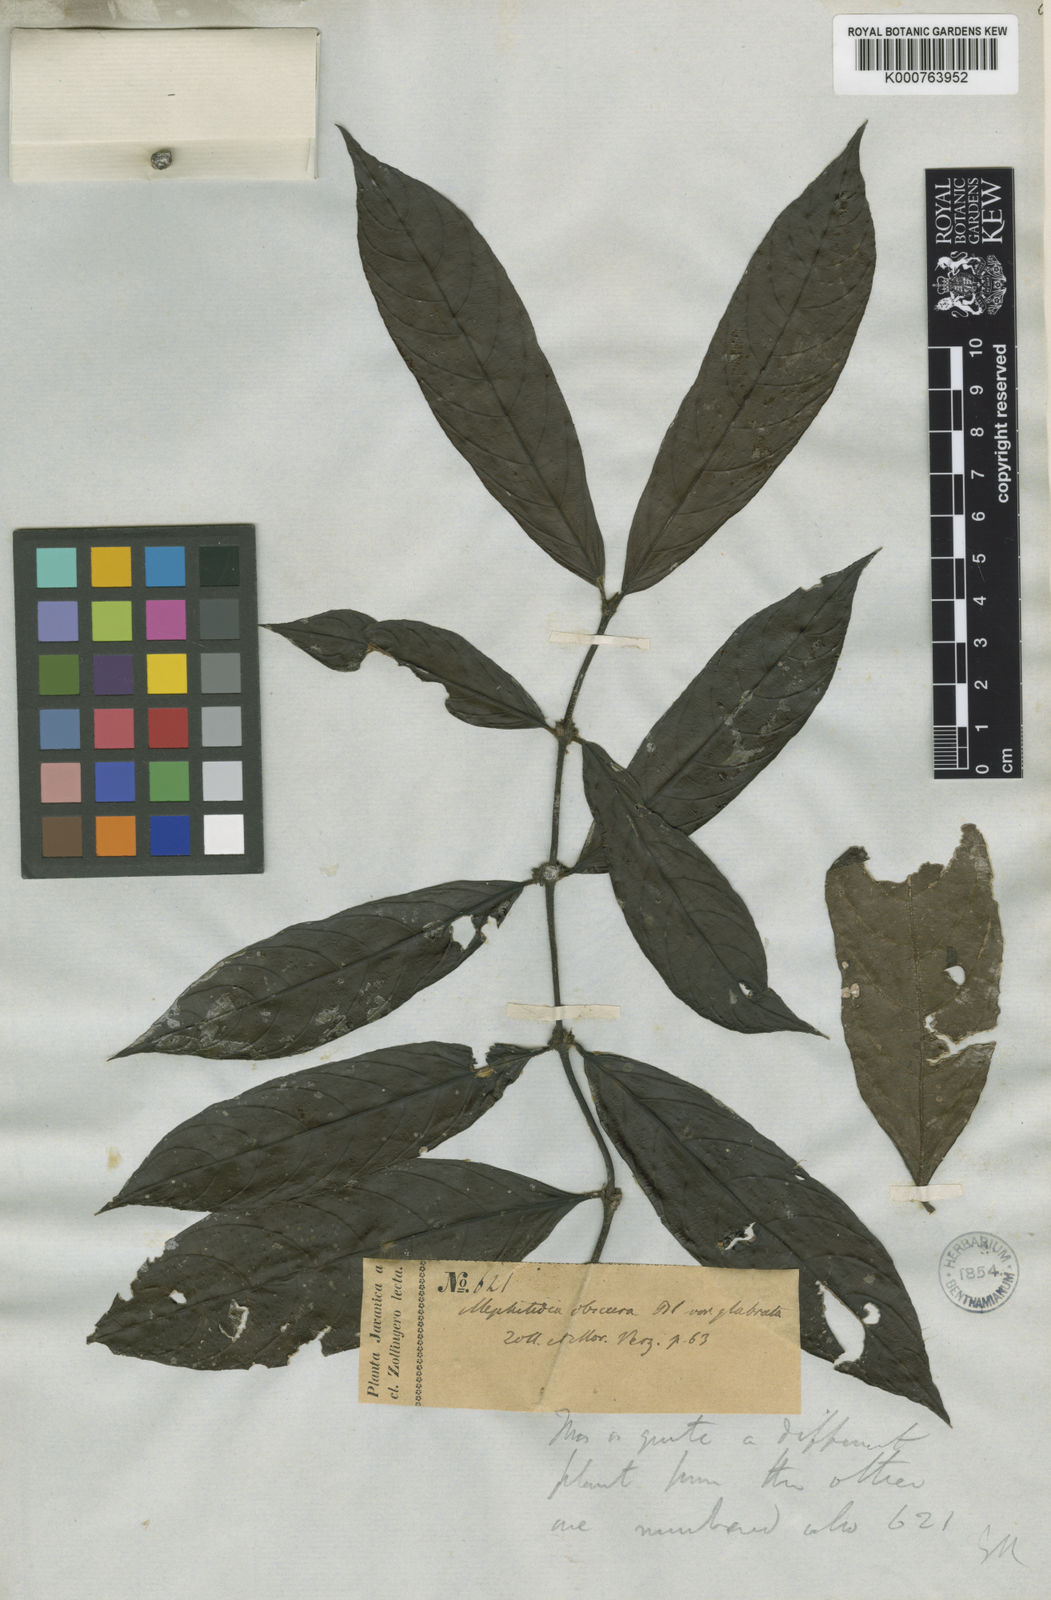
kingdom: Plantae
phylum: Tracheophyta
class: Magnoliopsida
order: Gentianales
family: Rubiaceae
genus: Lasianthus
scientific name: Lasianthus obscurus
